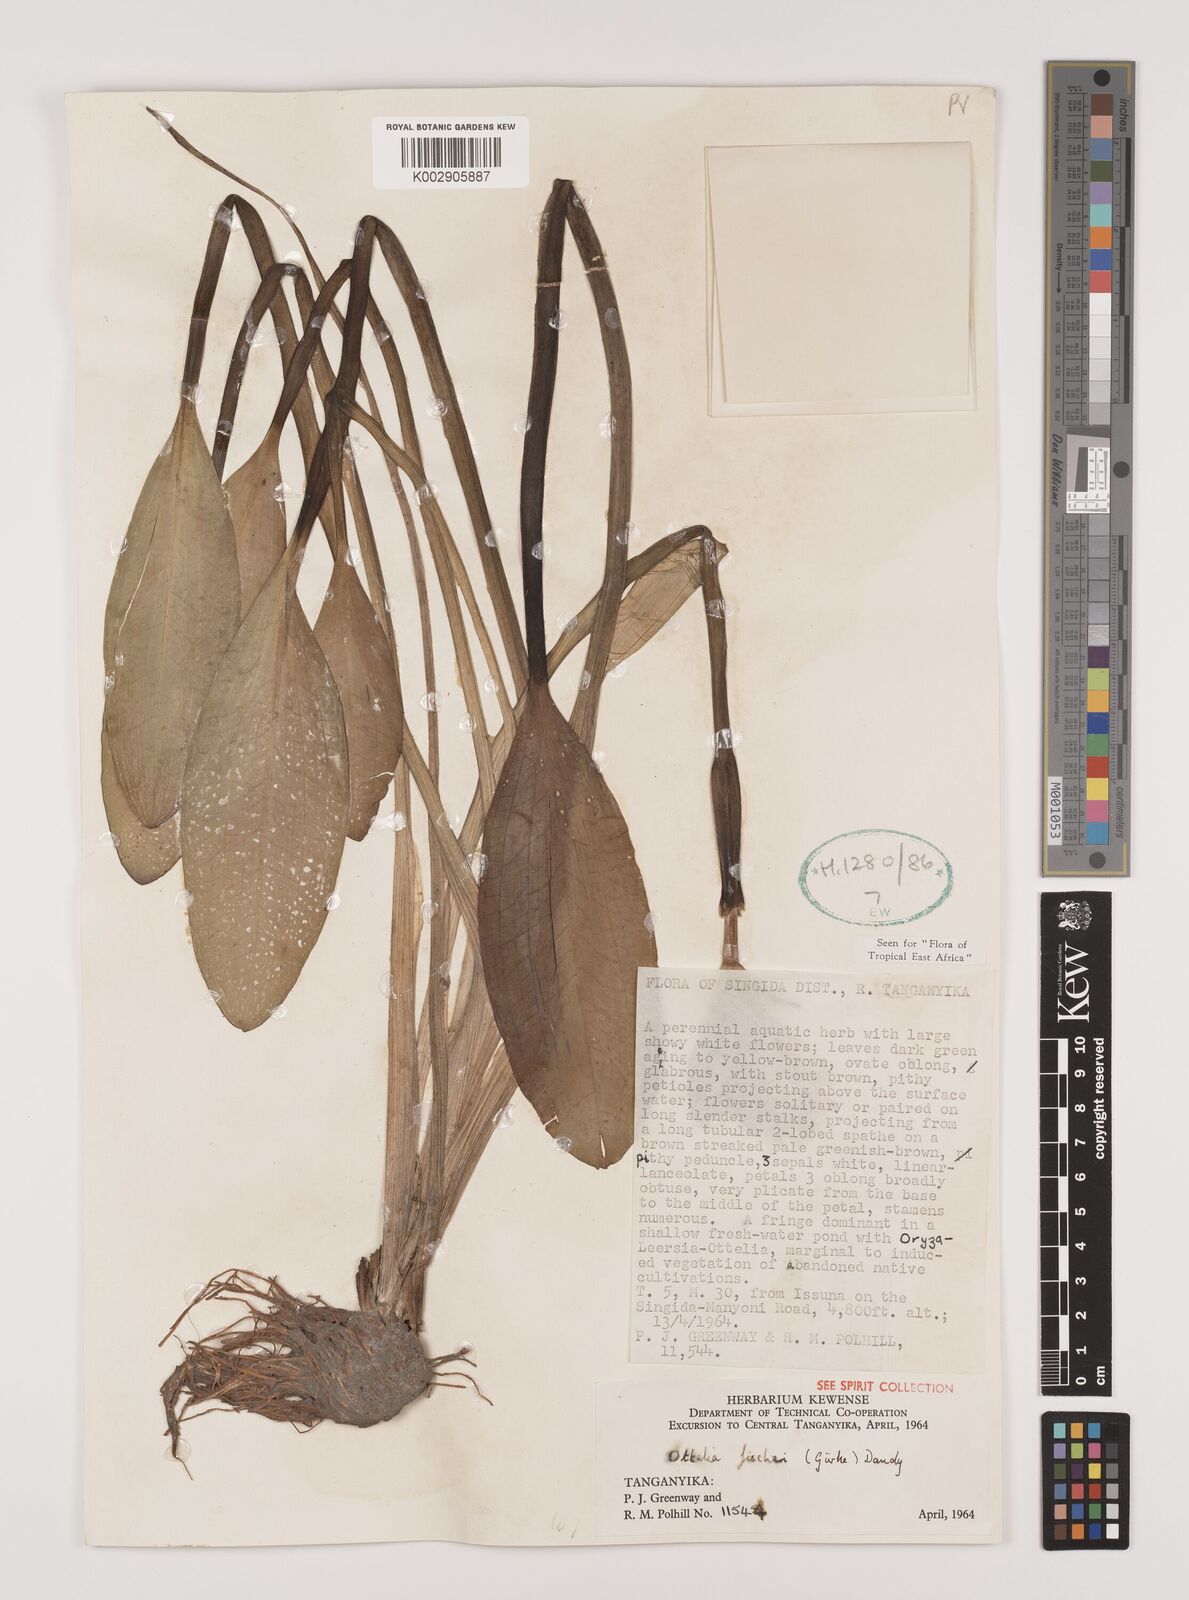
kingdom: Plantae
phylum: Tracheophyta
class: Liliopsida
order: Alismatales
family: Hydrocharitaceae
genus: Ottelia
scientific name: Ottelia fischeri
